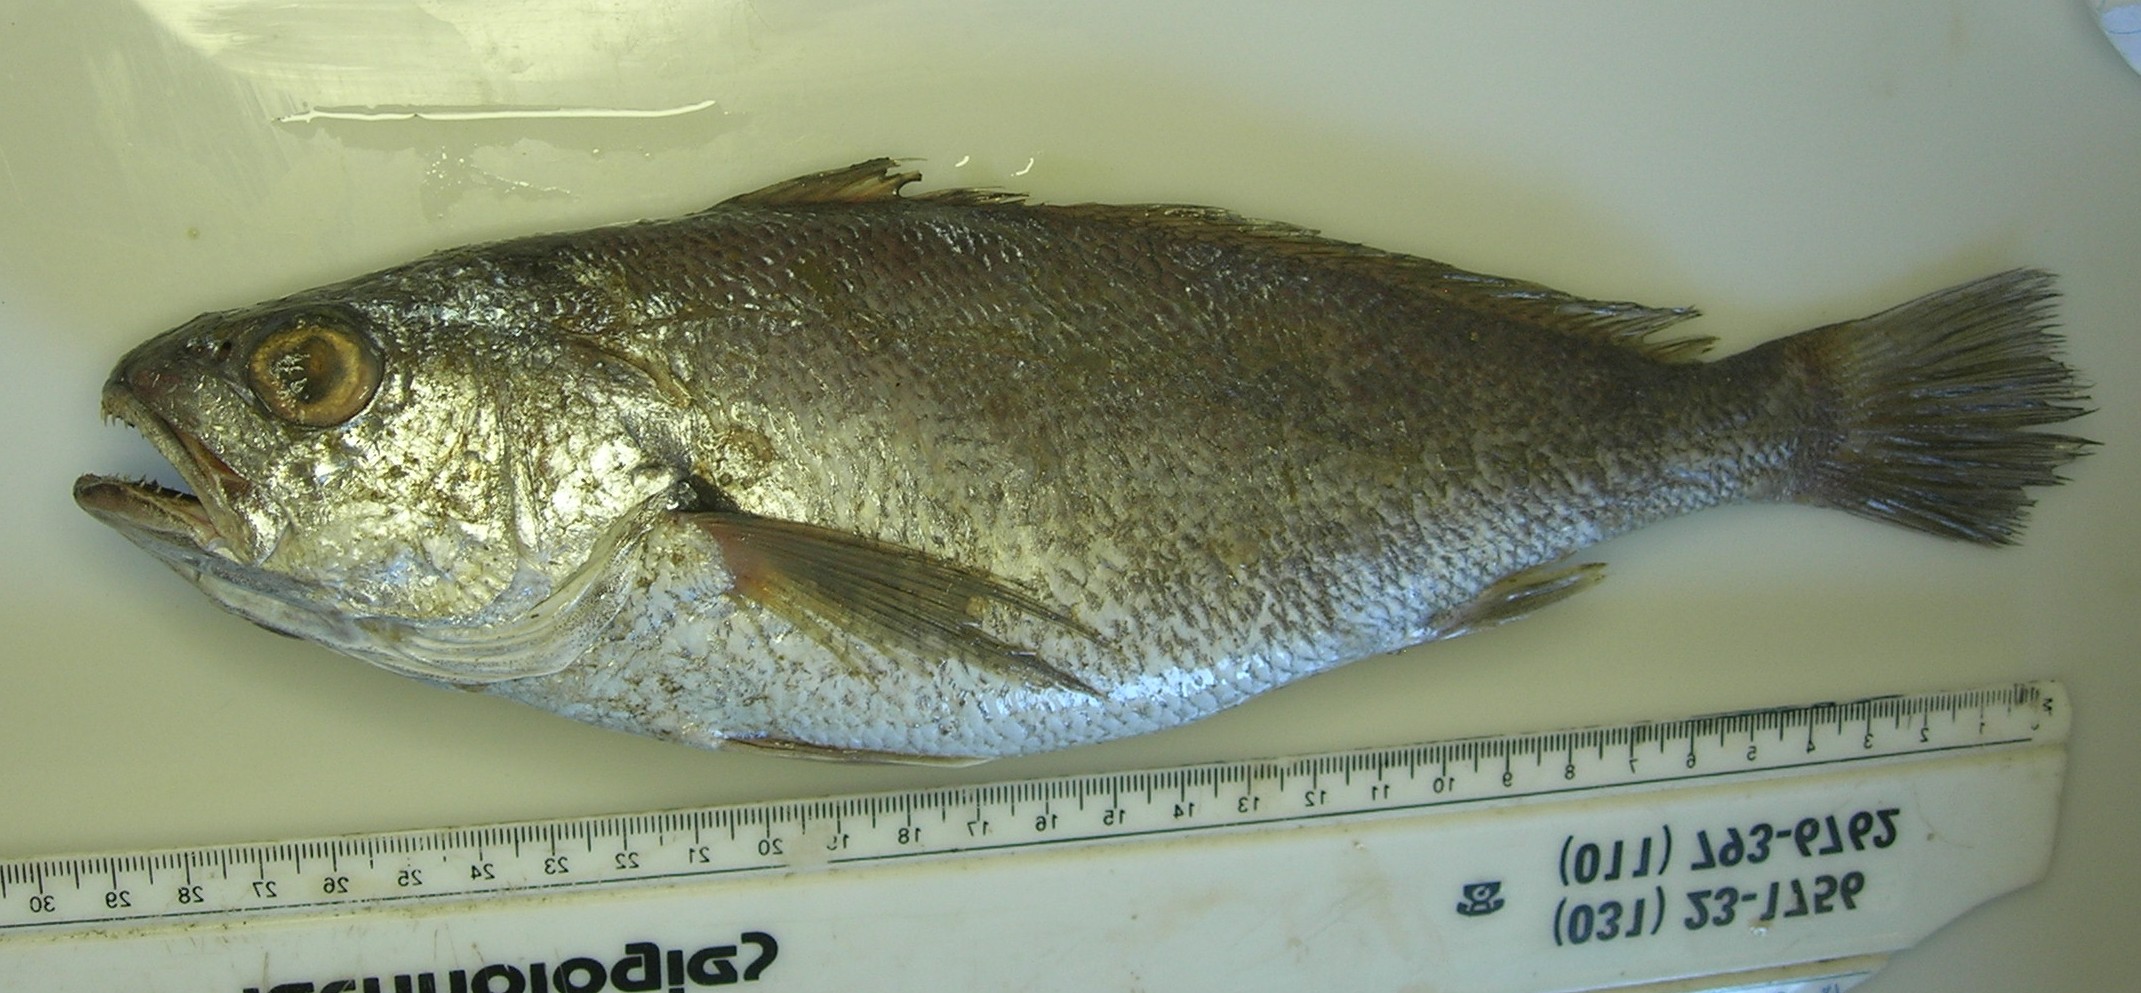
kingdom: Animalia
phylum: Chordata
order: Perciformes
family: Sciaenidae
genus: Atrobucca
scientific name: Atrobucca nibe
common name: Blackmouth croaker
